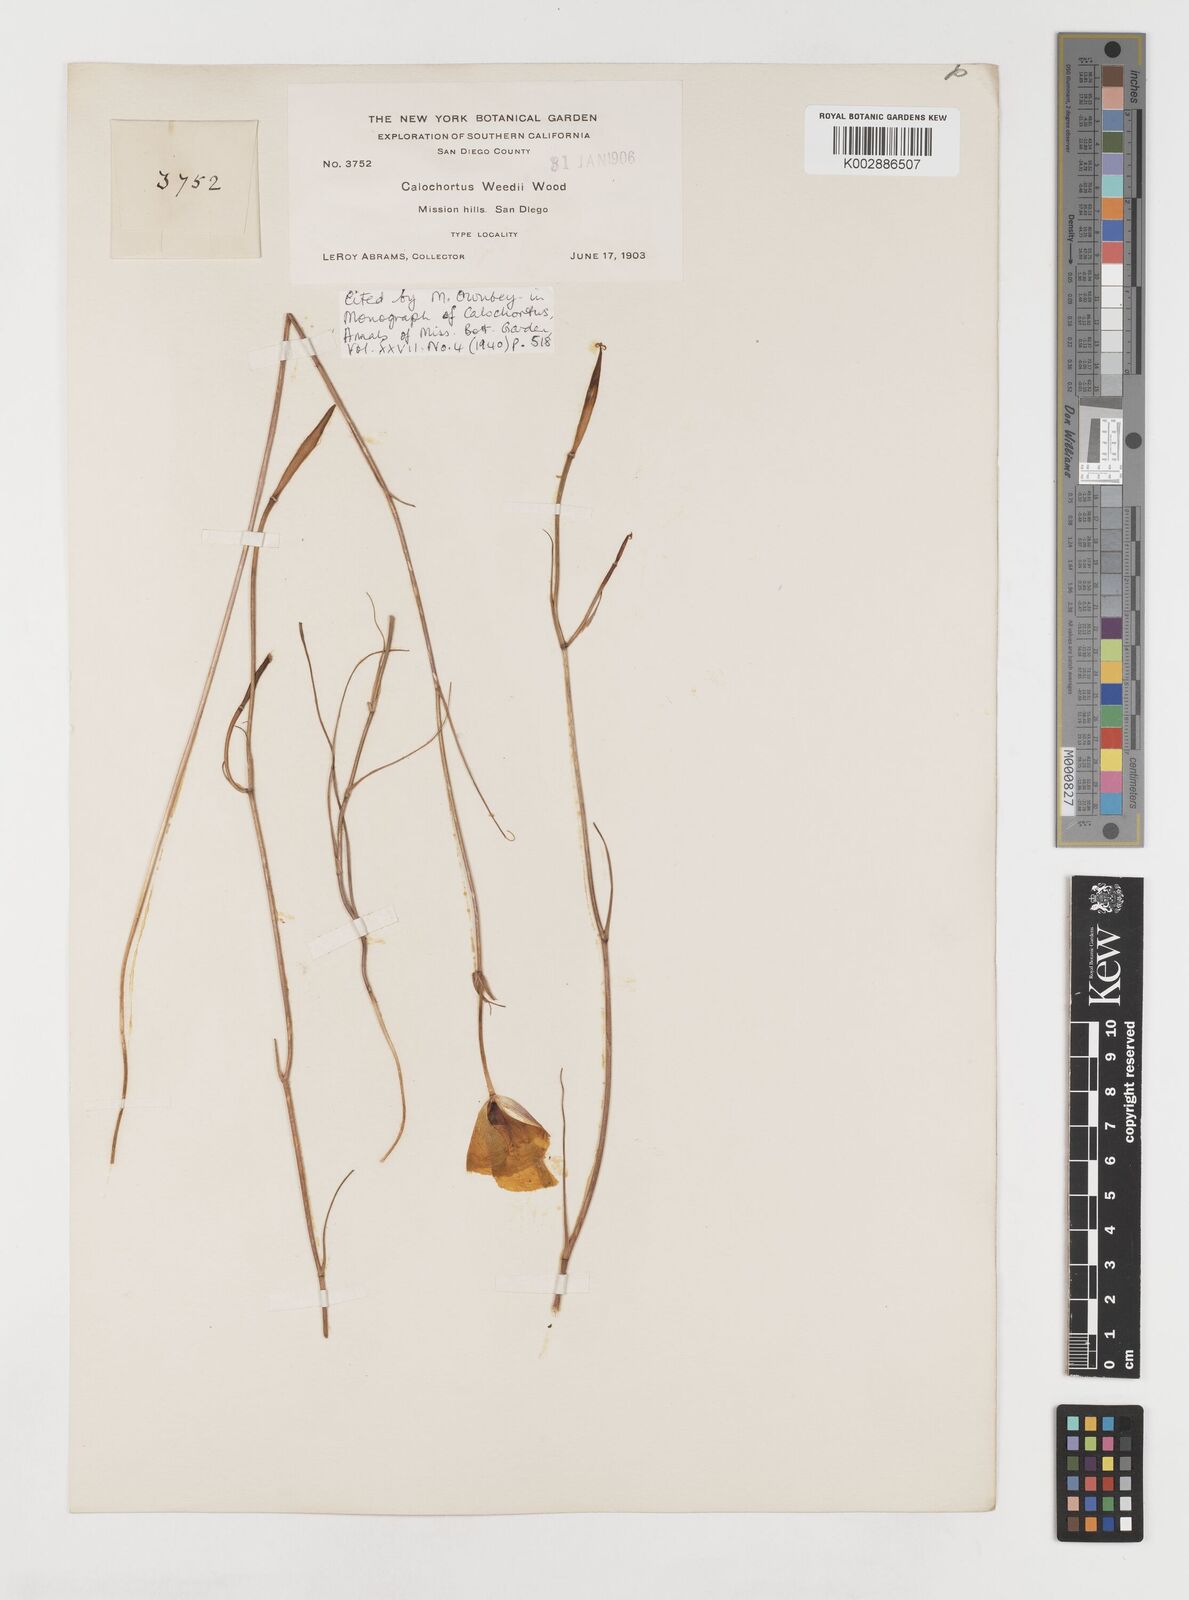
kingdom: Plantae
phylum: Tracheophyta
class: Liliopsida
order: Liliales
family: Liliaceae
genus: Calochortus
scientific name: Calochortus weedii
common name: Weed's mariposa-lily
